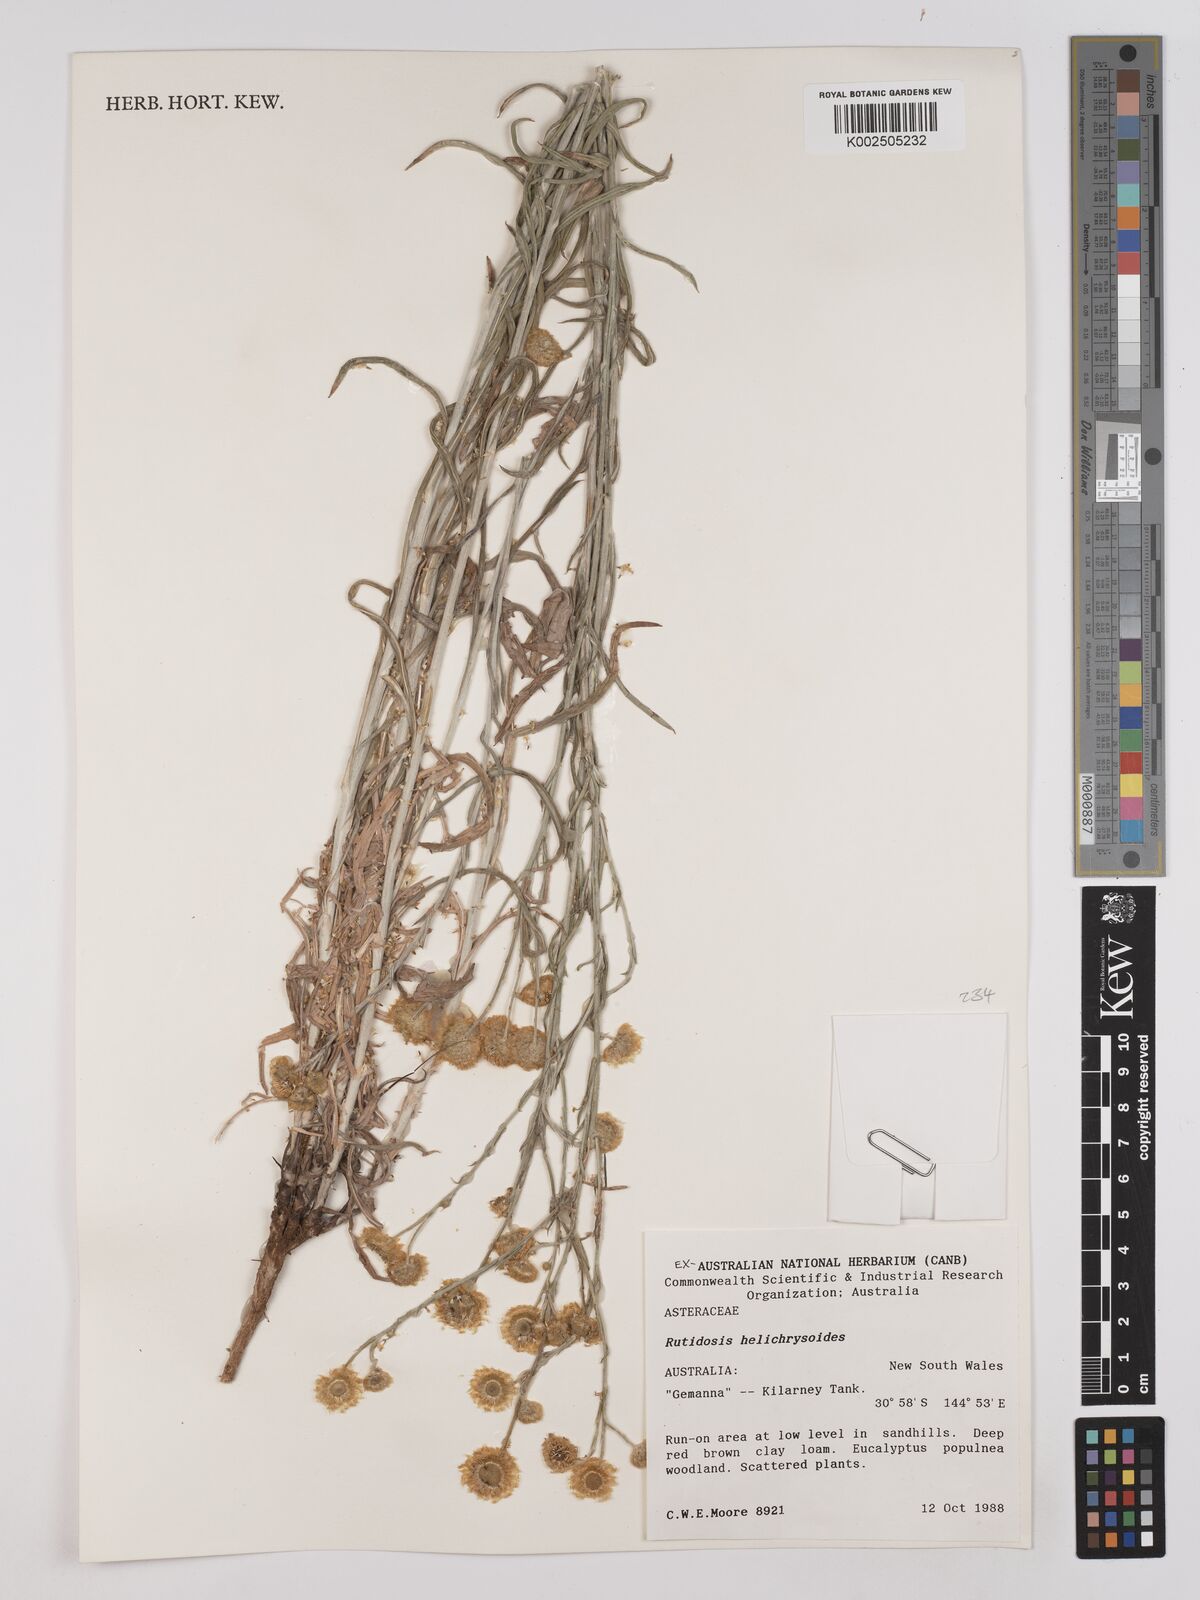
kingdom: Plantae
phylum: Tracheophyta
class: Magnoliopsida
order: Asterales
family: Asteraceae
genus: Rutidosis
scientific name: Rutidosis helichrysoides
